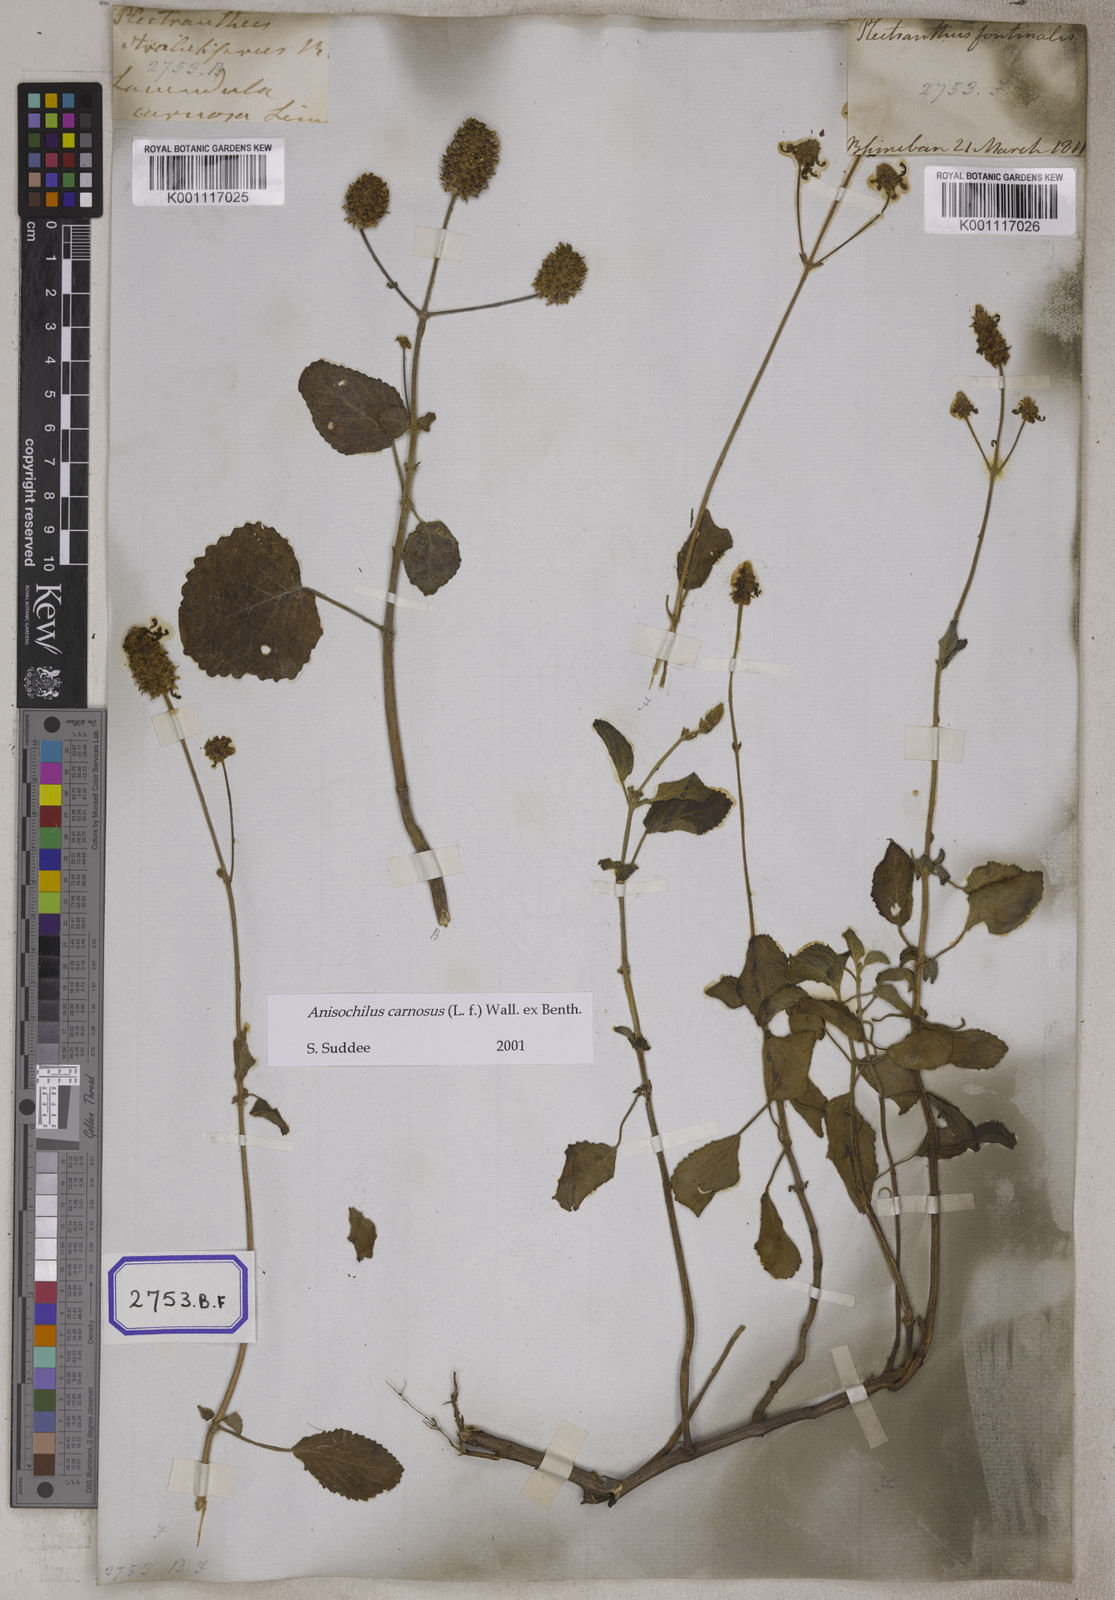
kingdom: Plantae
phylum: Tracheophyta
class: Magnoliopsida
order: Lamiales
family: Lamiaceae
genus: Anisochilus
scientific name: Anisochilus
